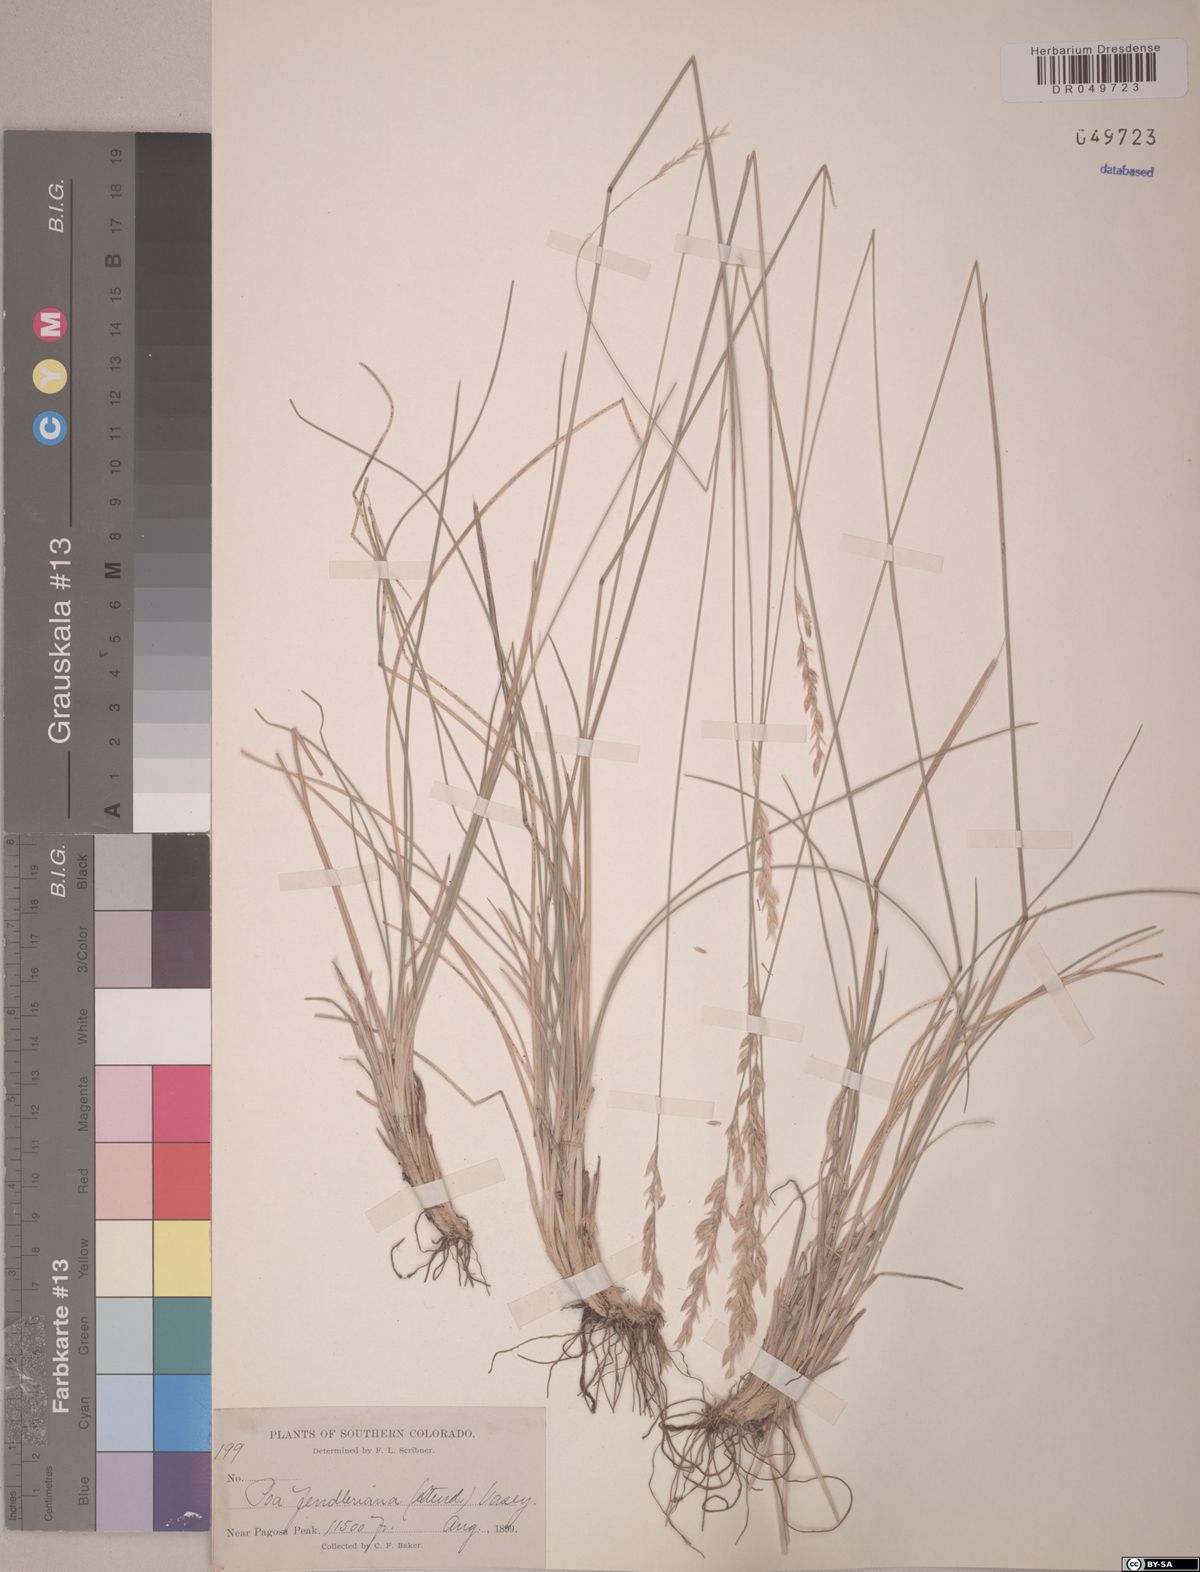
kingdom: Plantae
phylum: Tracheophyta
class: Liliopsida
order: Poales
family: Poaceae
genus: Poa
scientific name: Poa fendleriana
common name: Mutton bluegrass
